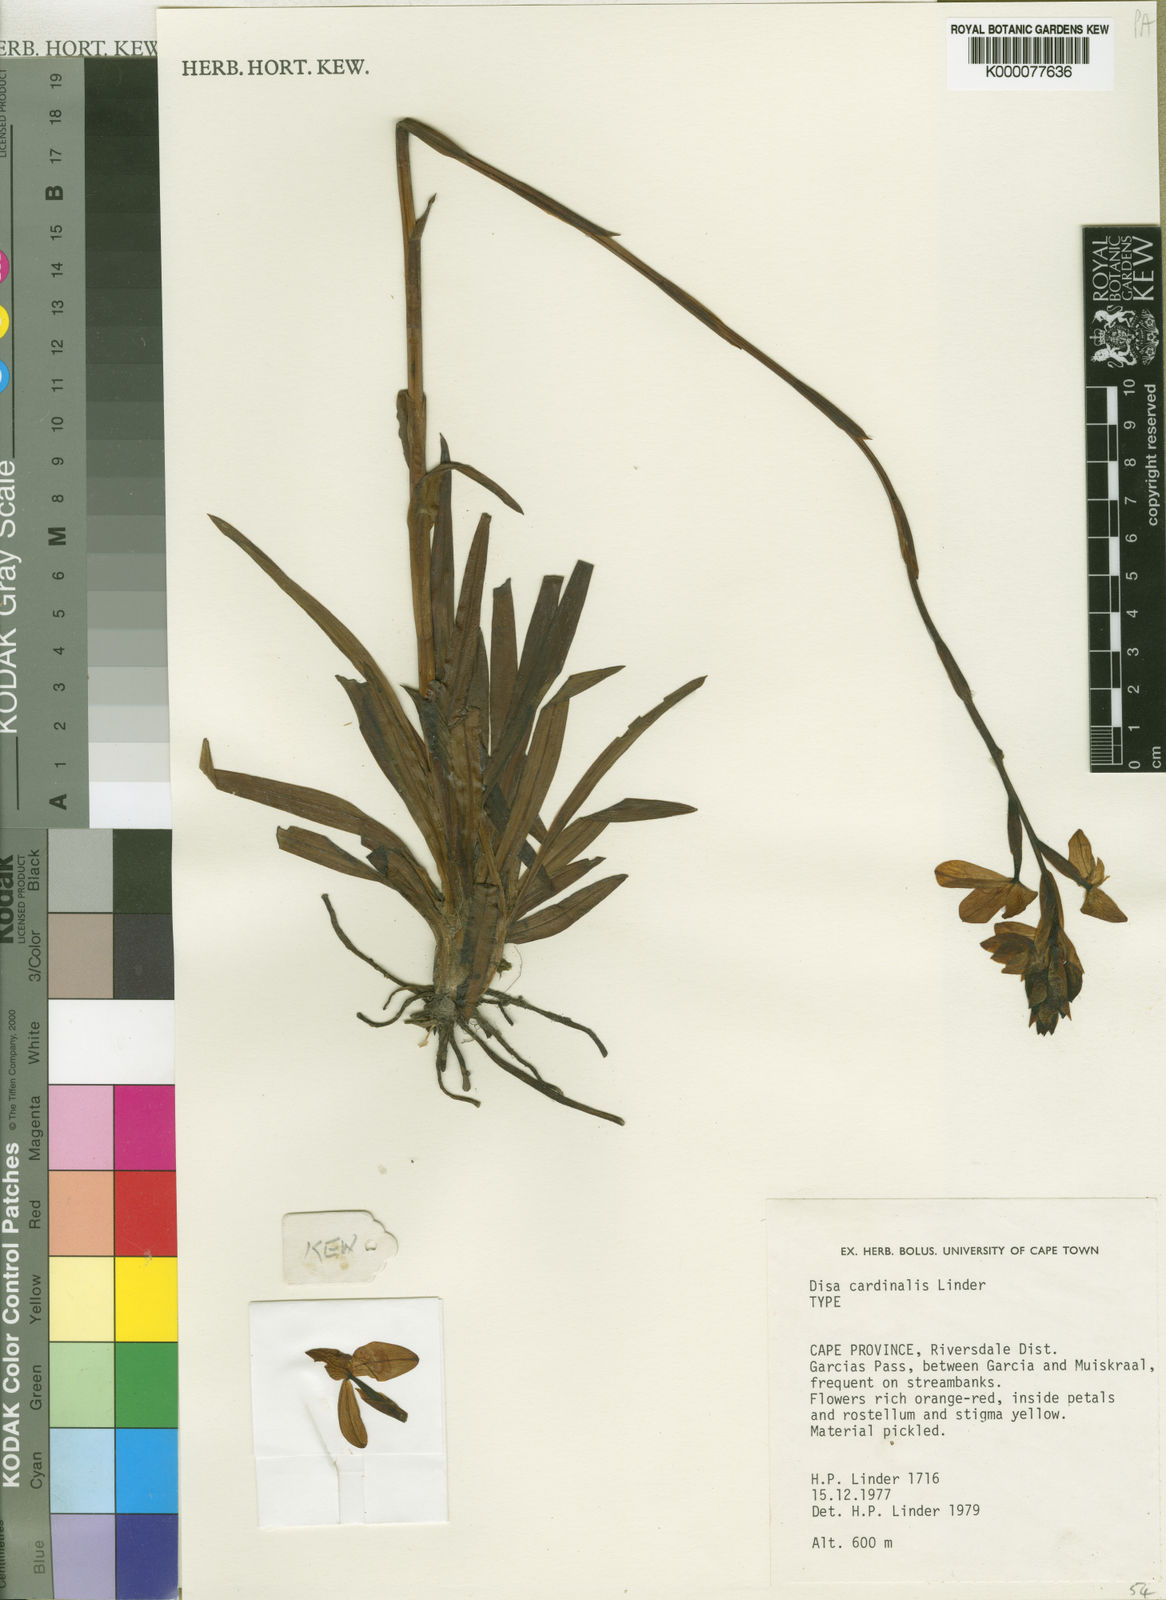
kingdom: Plantae
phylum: Tracheophyta
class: Liliopsida
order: Asparagales
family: Orchidaceae
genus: Disa
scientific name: Disa cardinalis
